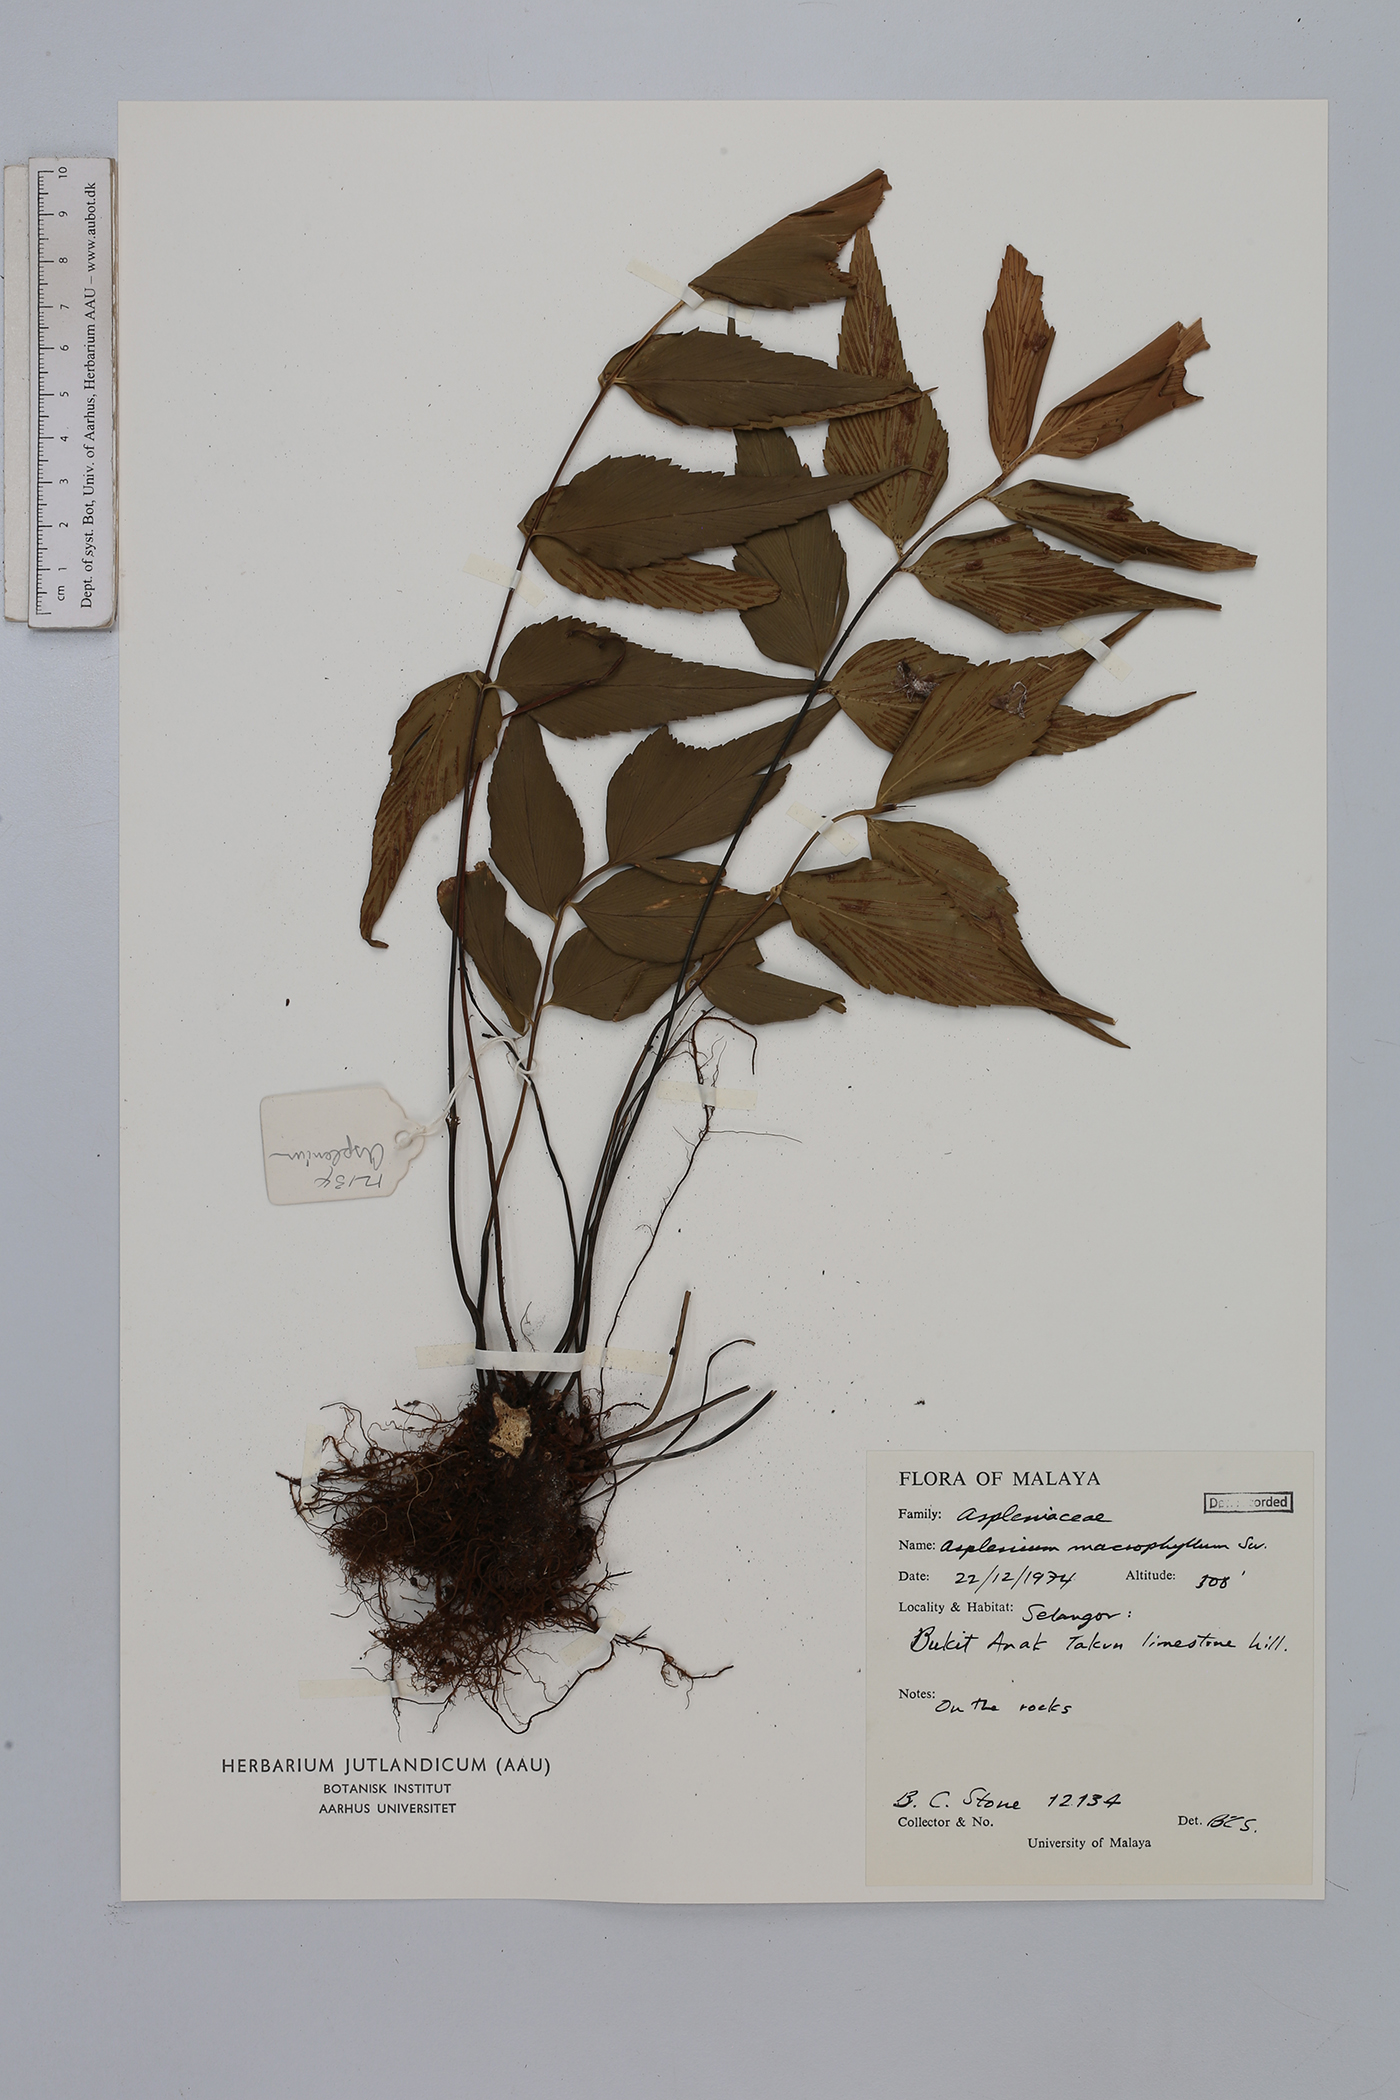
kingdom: Plantae
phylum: Tracheophyta
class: Polypodiopsida
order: Polypodiales
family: Aspleniaceae
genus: Asplenium
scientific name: Asplenium macrophyllum
